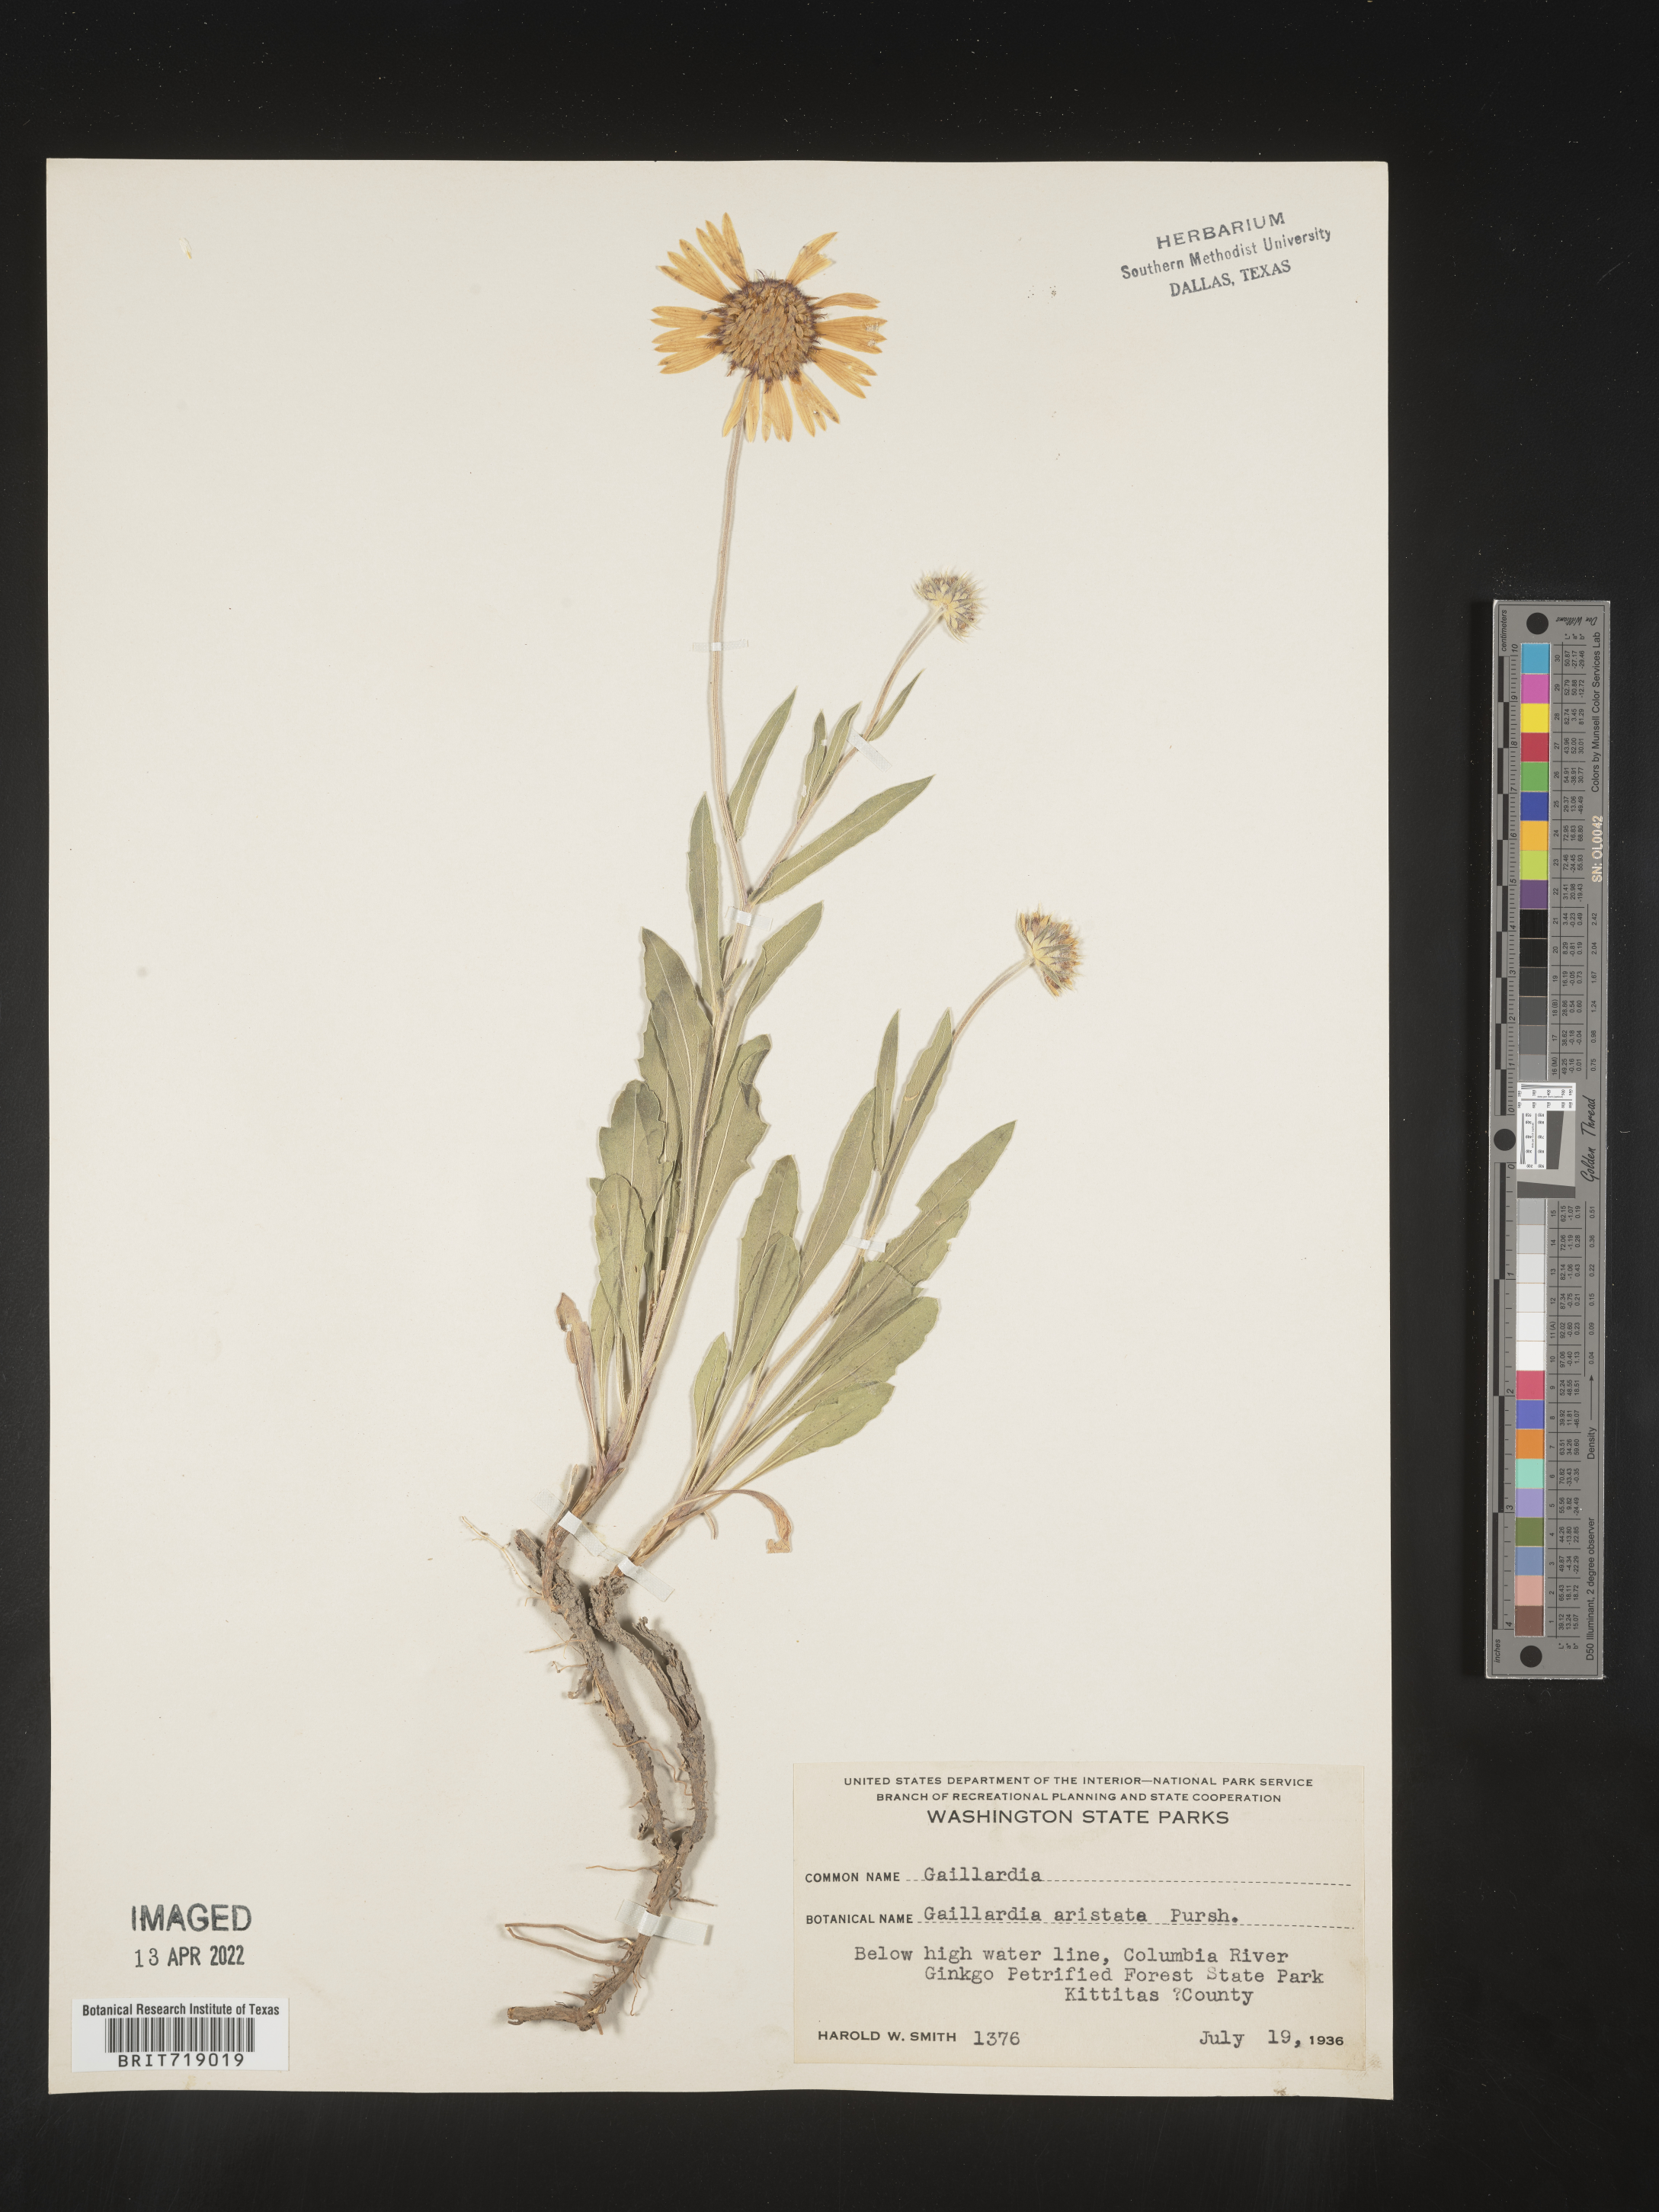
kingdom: Plantae
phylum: Tracheophyta
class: Magnoliopsida
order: Asterales
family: Asteraceae
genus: Gaillardia
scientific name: Gaillardia aristata
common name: Blanket-flower
